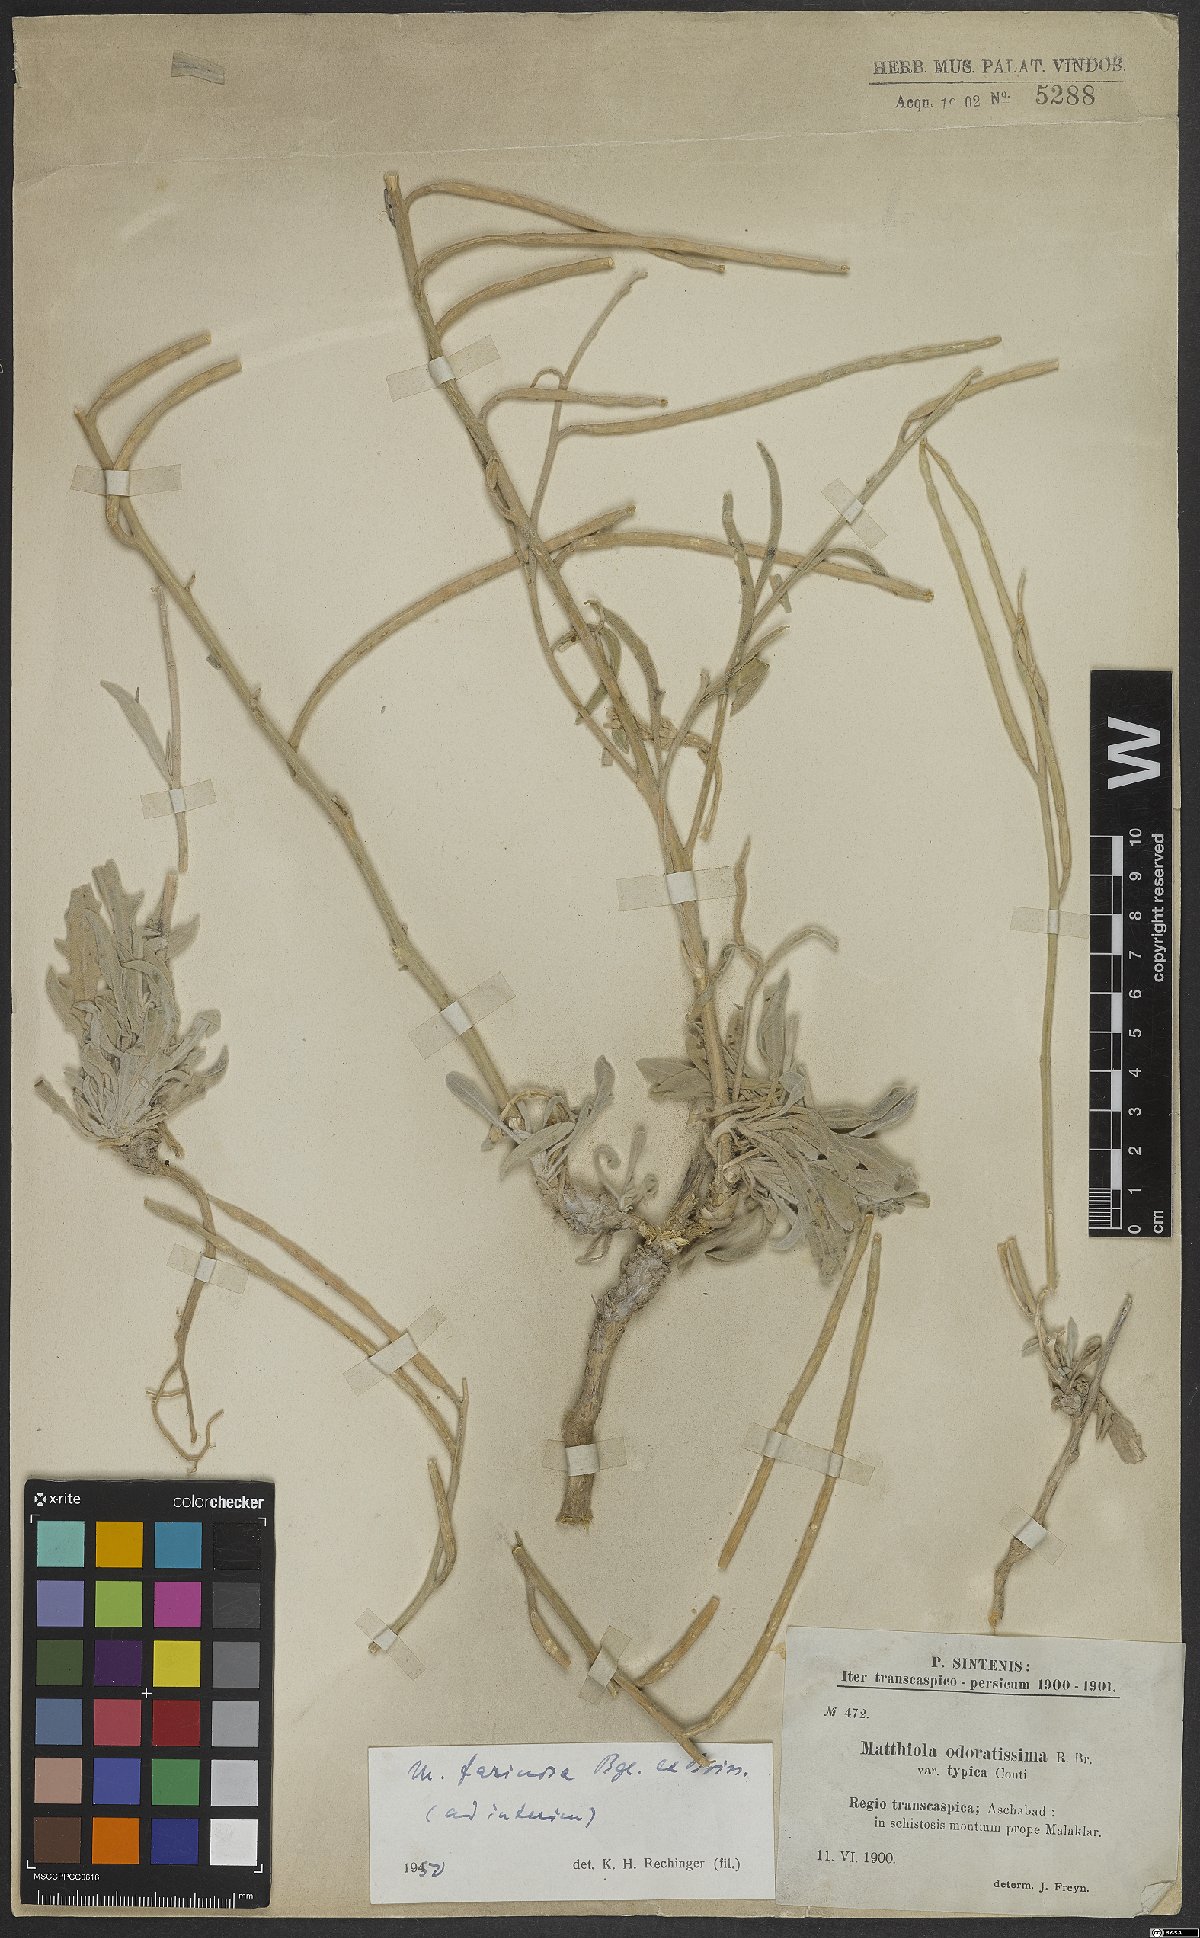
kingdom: Plantae
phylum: Tracheophyta
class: Magnoliopsida
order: Brassicales
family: Brassicaceae
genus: Matthiola
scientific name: Matthiola farinosa
